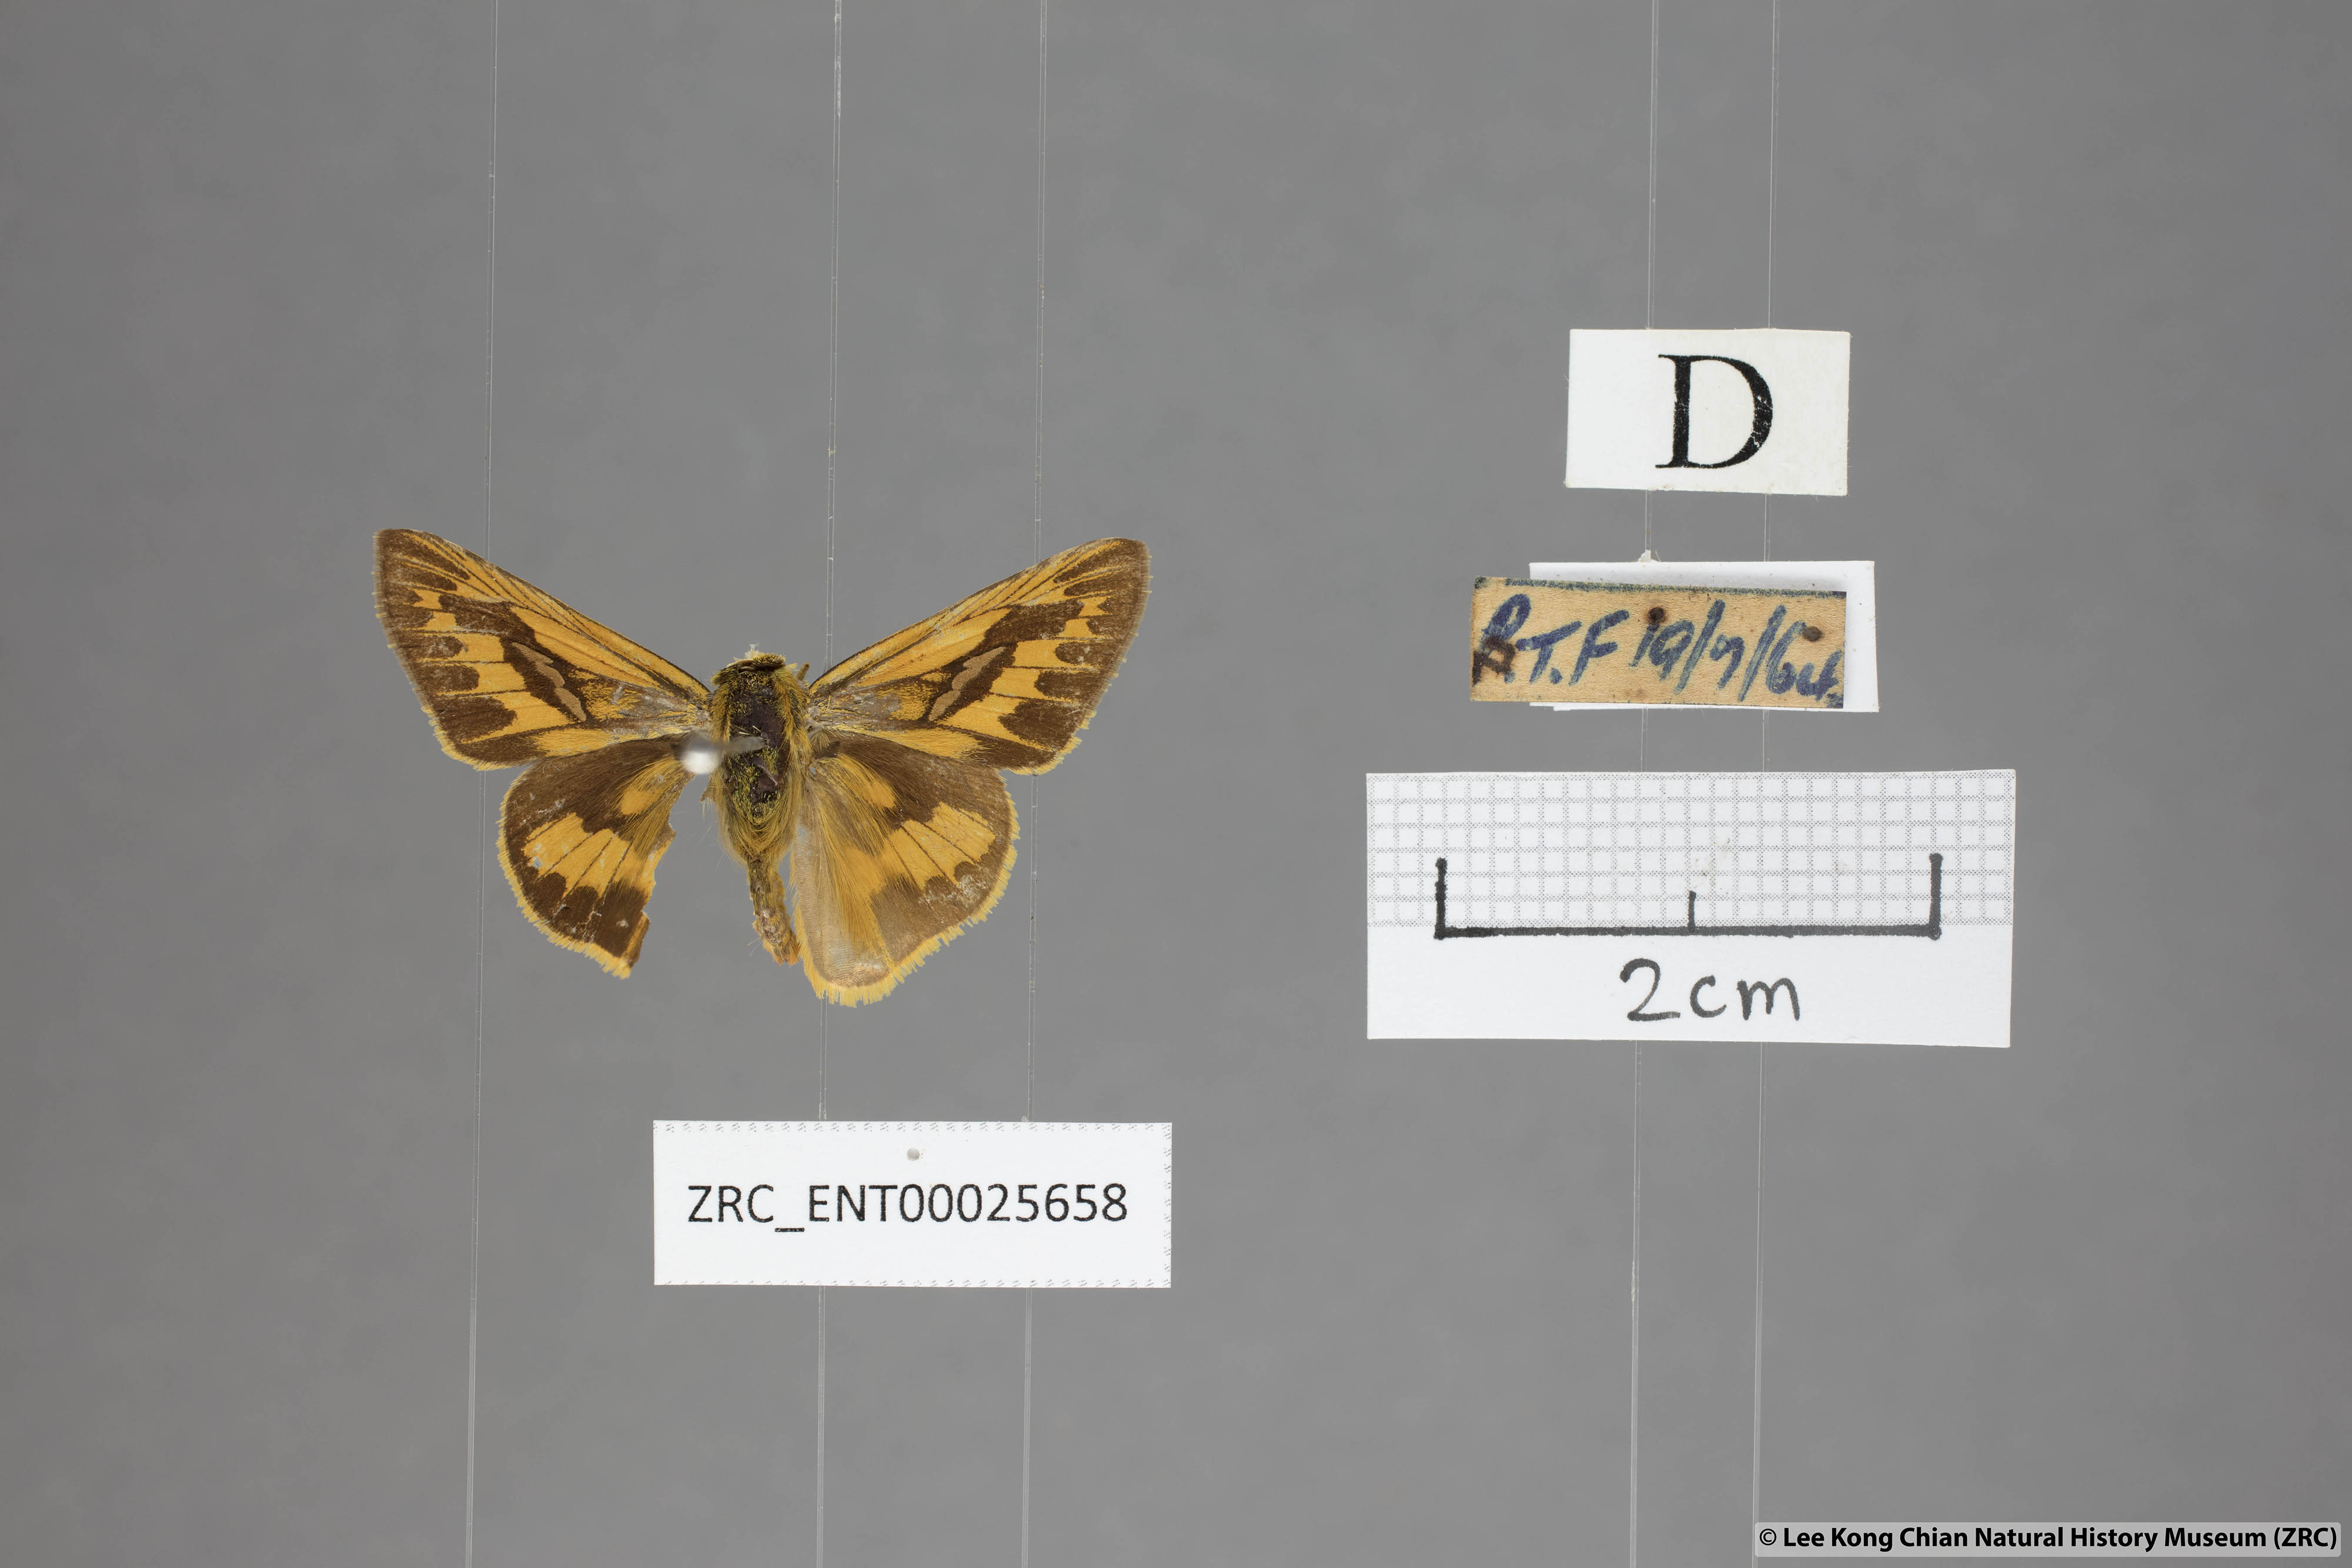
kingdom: Animalia
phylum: Arthropoda
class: Insecta
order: Lepidoptera
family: Hesperiidae
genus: Telicota
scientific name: Telicota colon
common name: Pale palm dart
